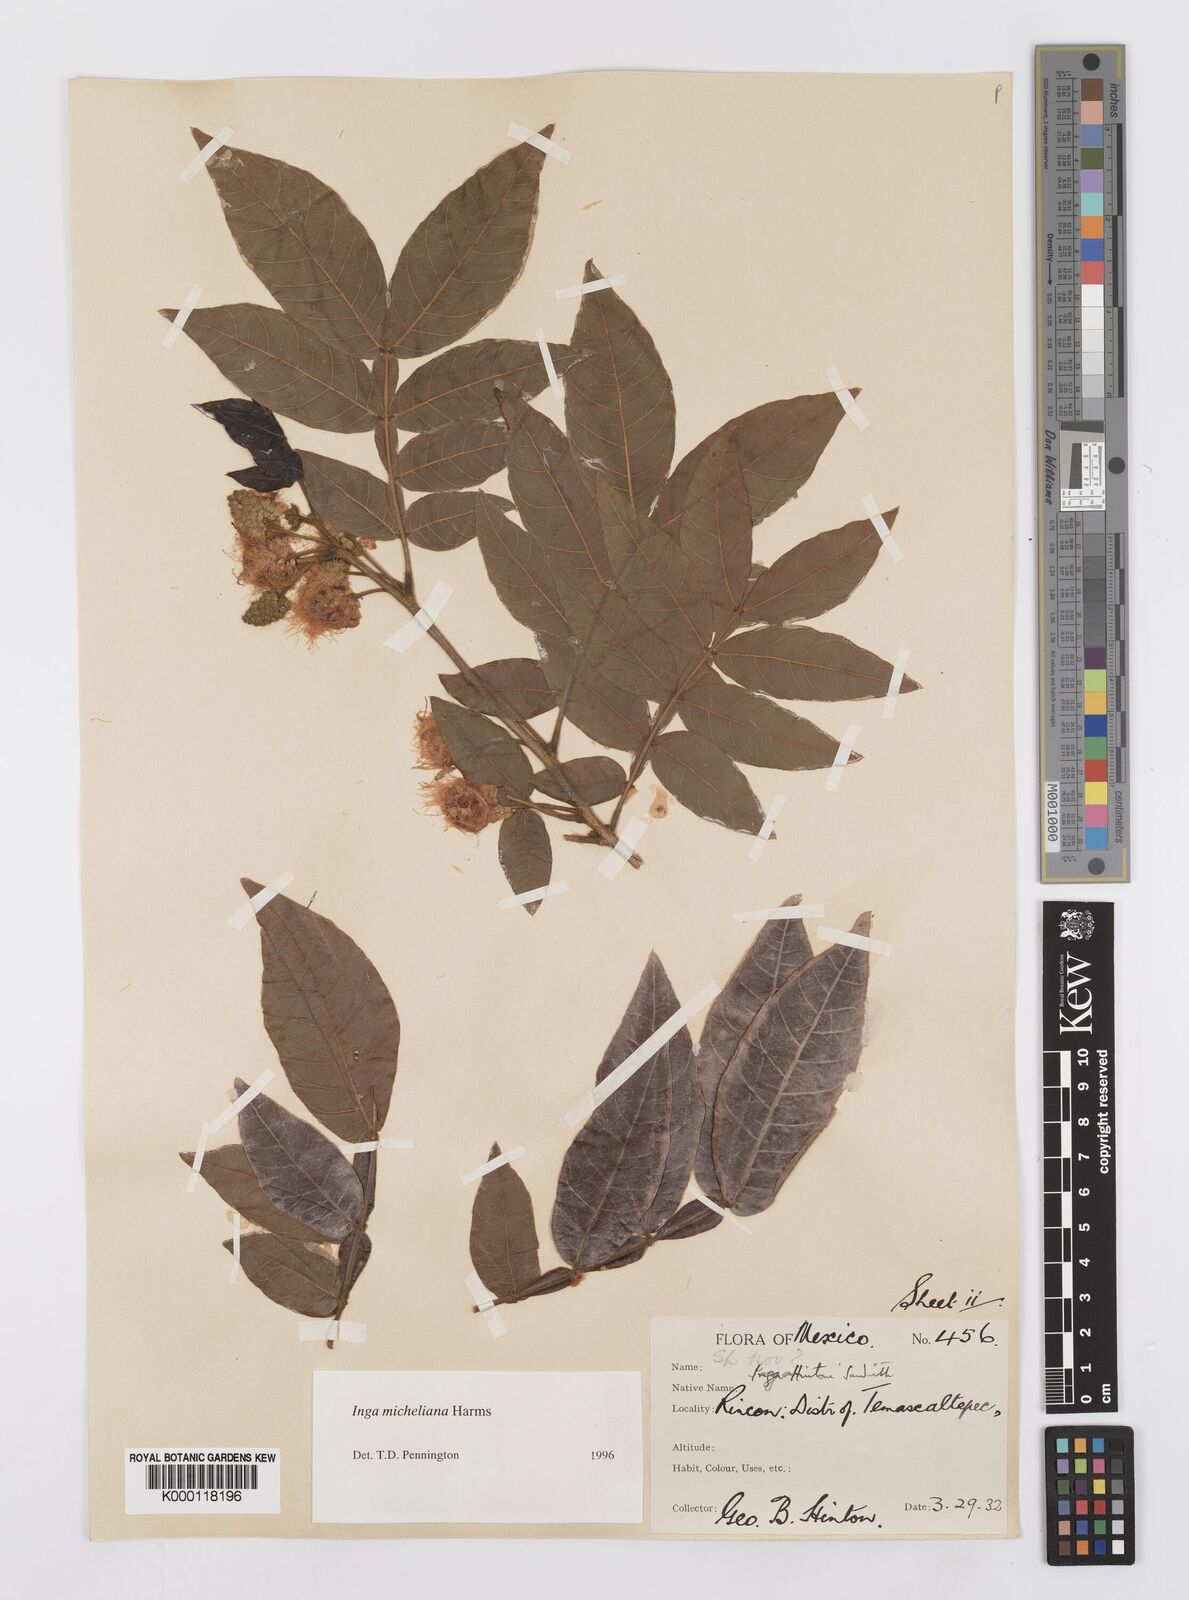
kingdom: Plantae
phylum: Tracheophyta
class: Magnoliopsida
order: Fabales
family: Fabaceae
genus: Inga
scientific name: Inga flexuosa
